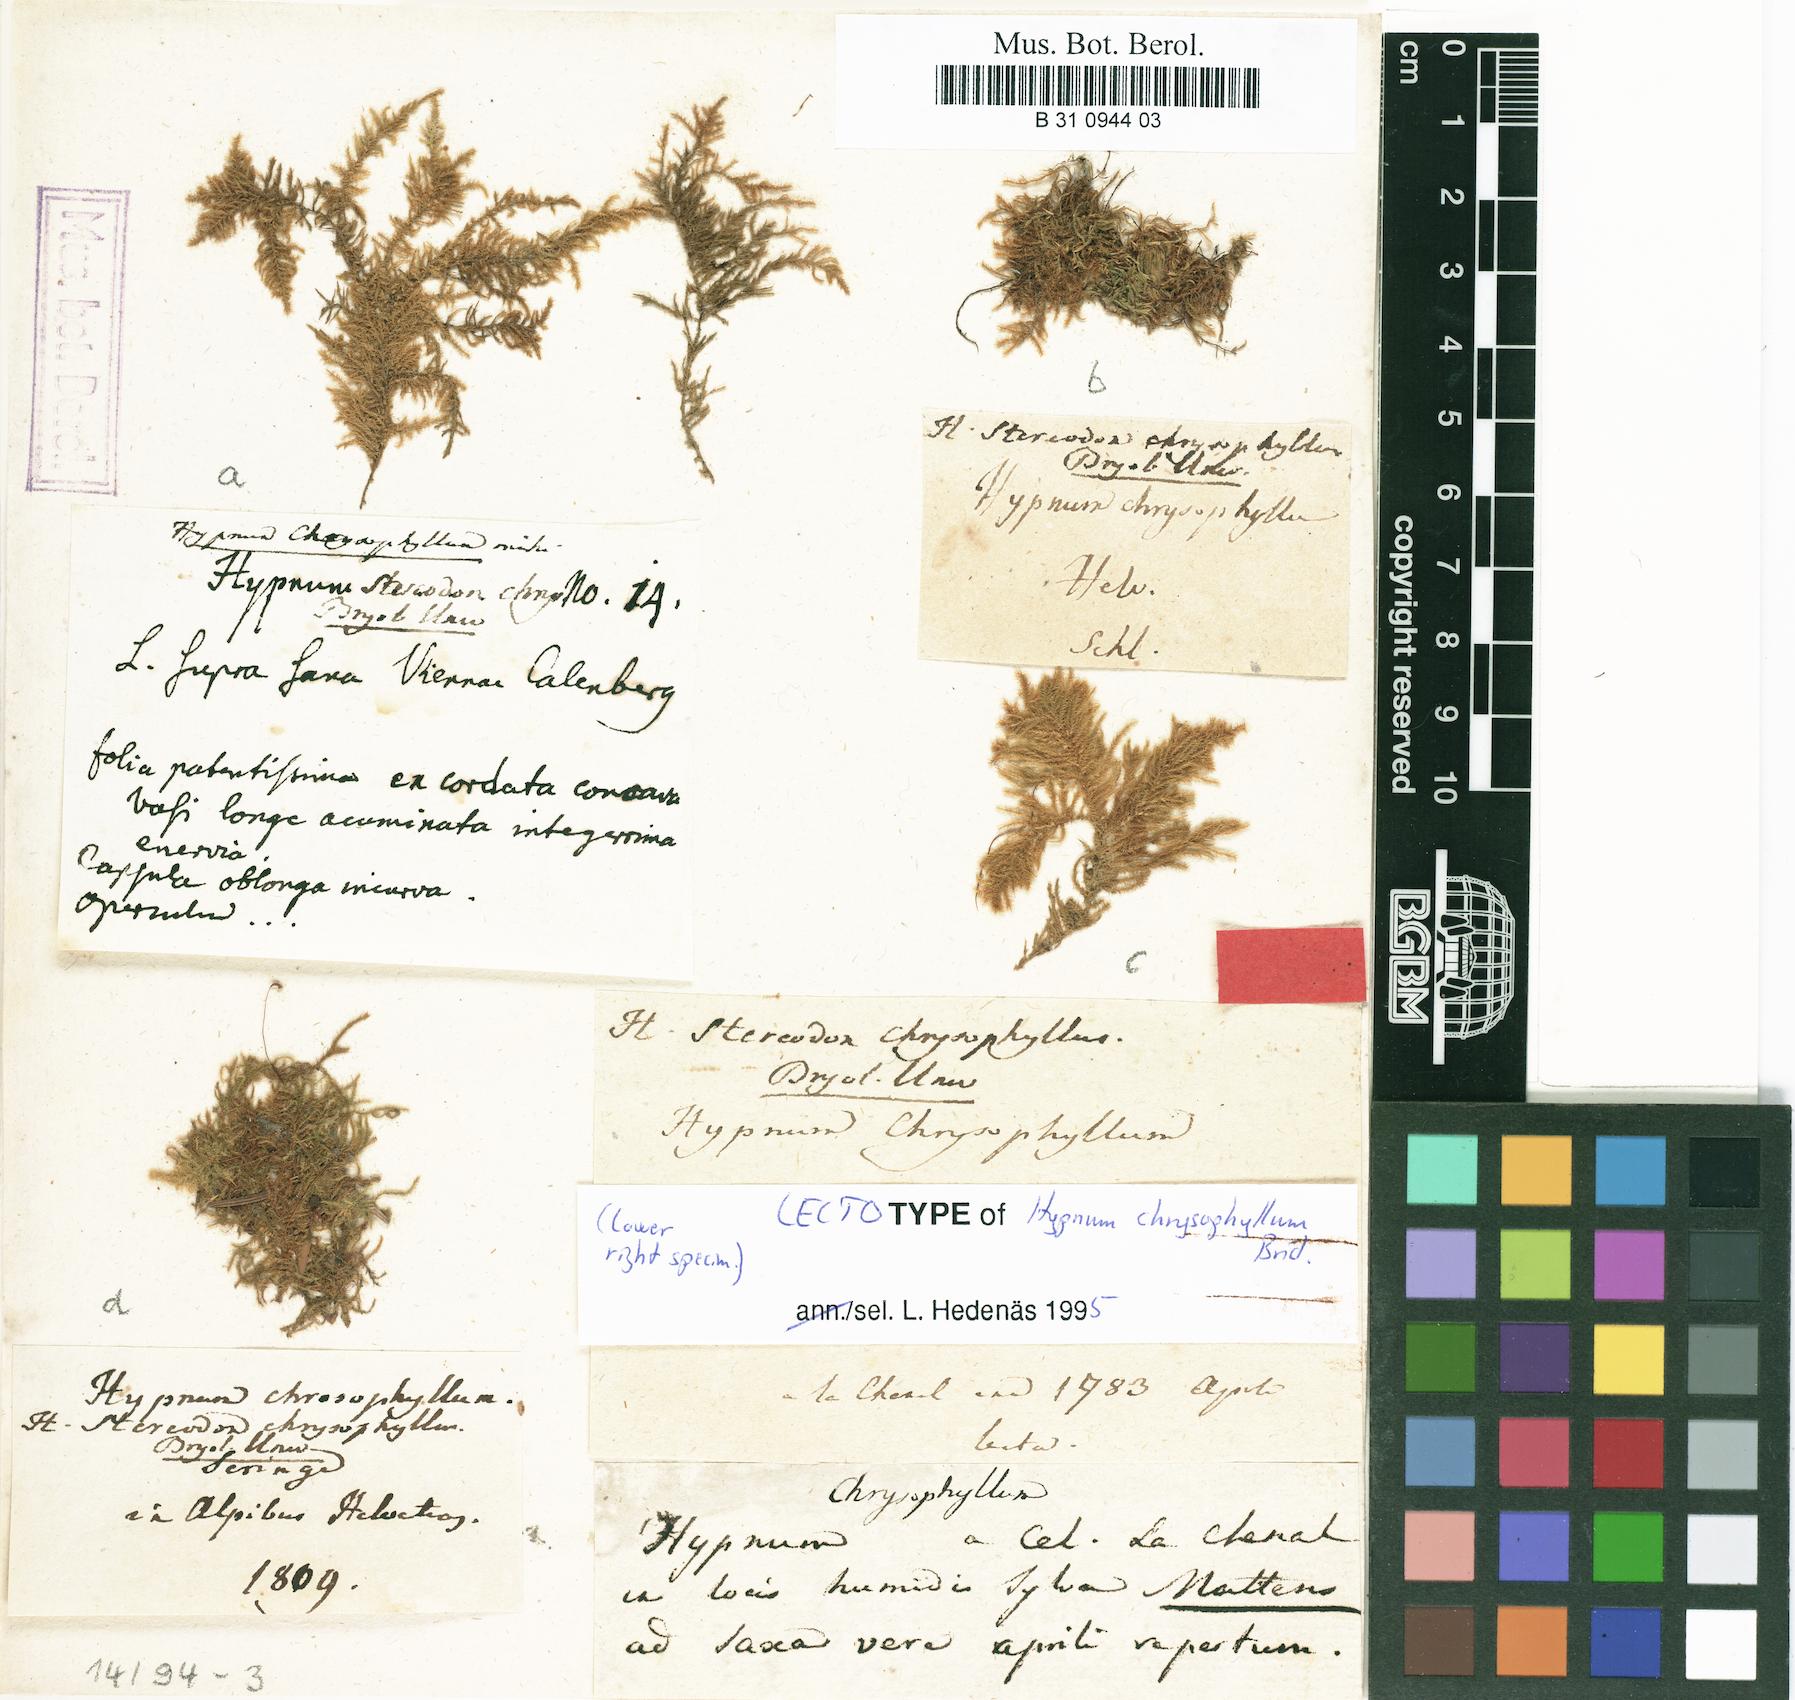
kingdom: Plantae
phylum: Bryophyta
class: Bryopsida
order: Hypnales
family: Amblystegiaceae
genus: Campylium
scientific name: Campylium chrysophyllum
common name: Goldenleaf campylium moss
